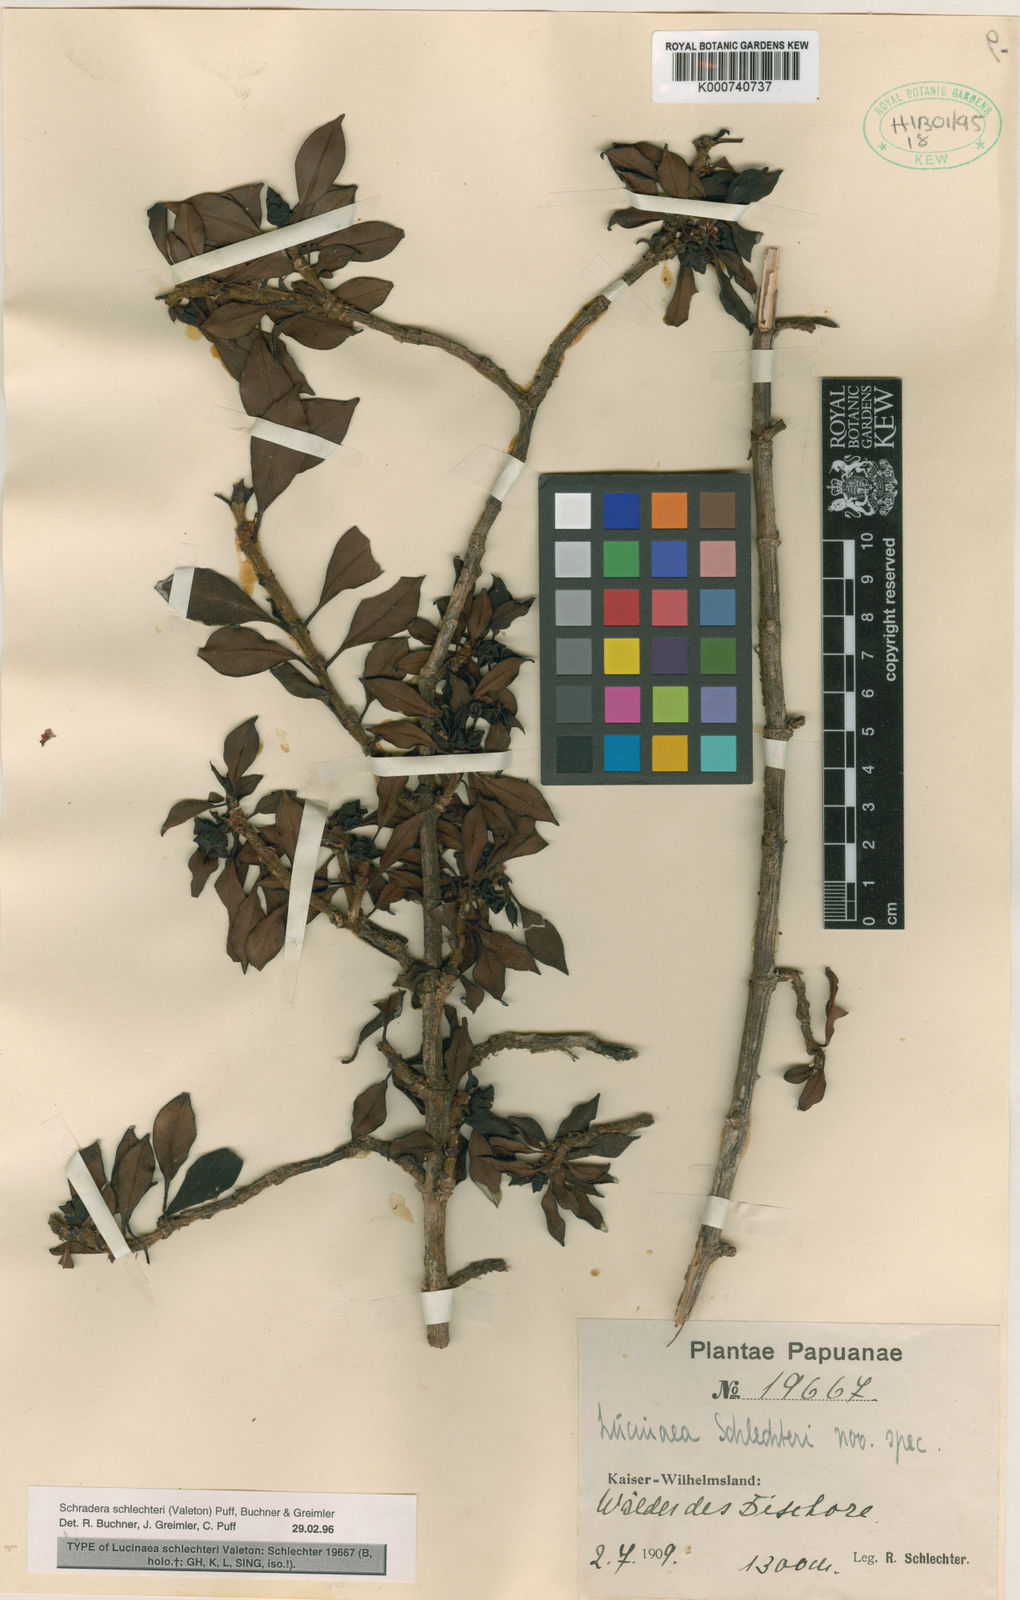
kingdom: Plantae
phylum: Tracheophyta
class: Magnoliopsida
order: Gentianales
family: Rubiaceae
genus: Schradera
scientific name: Schradera schlechteri
